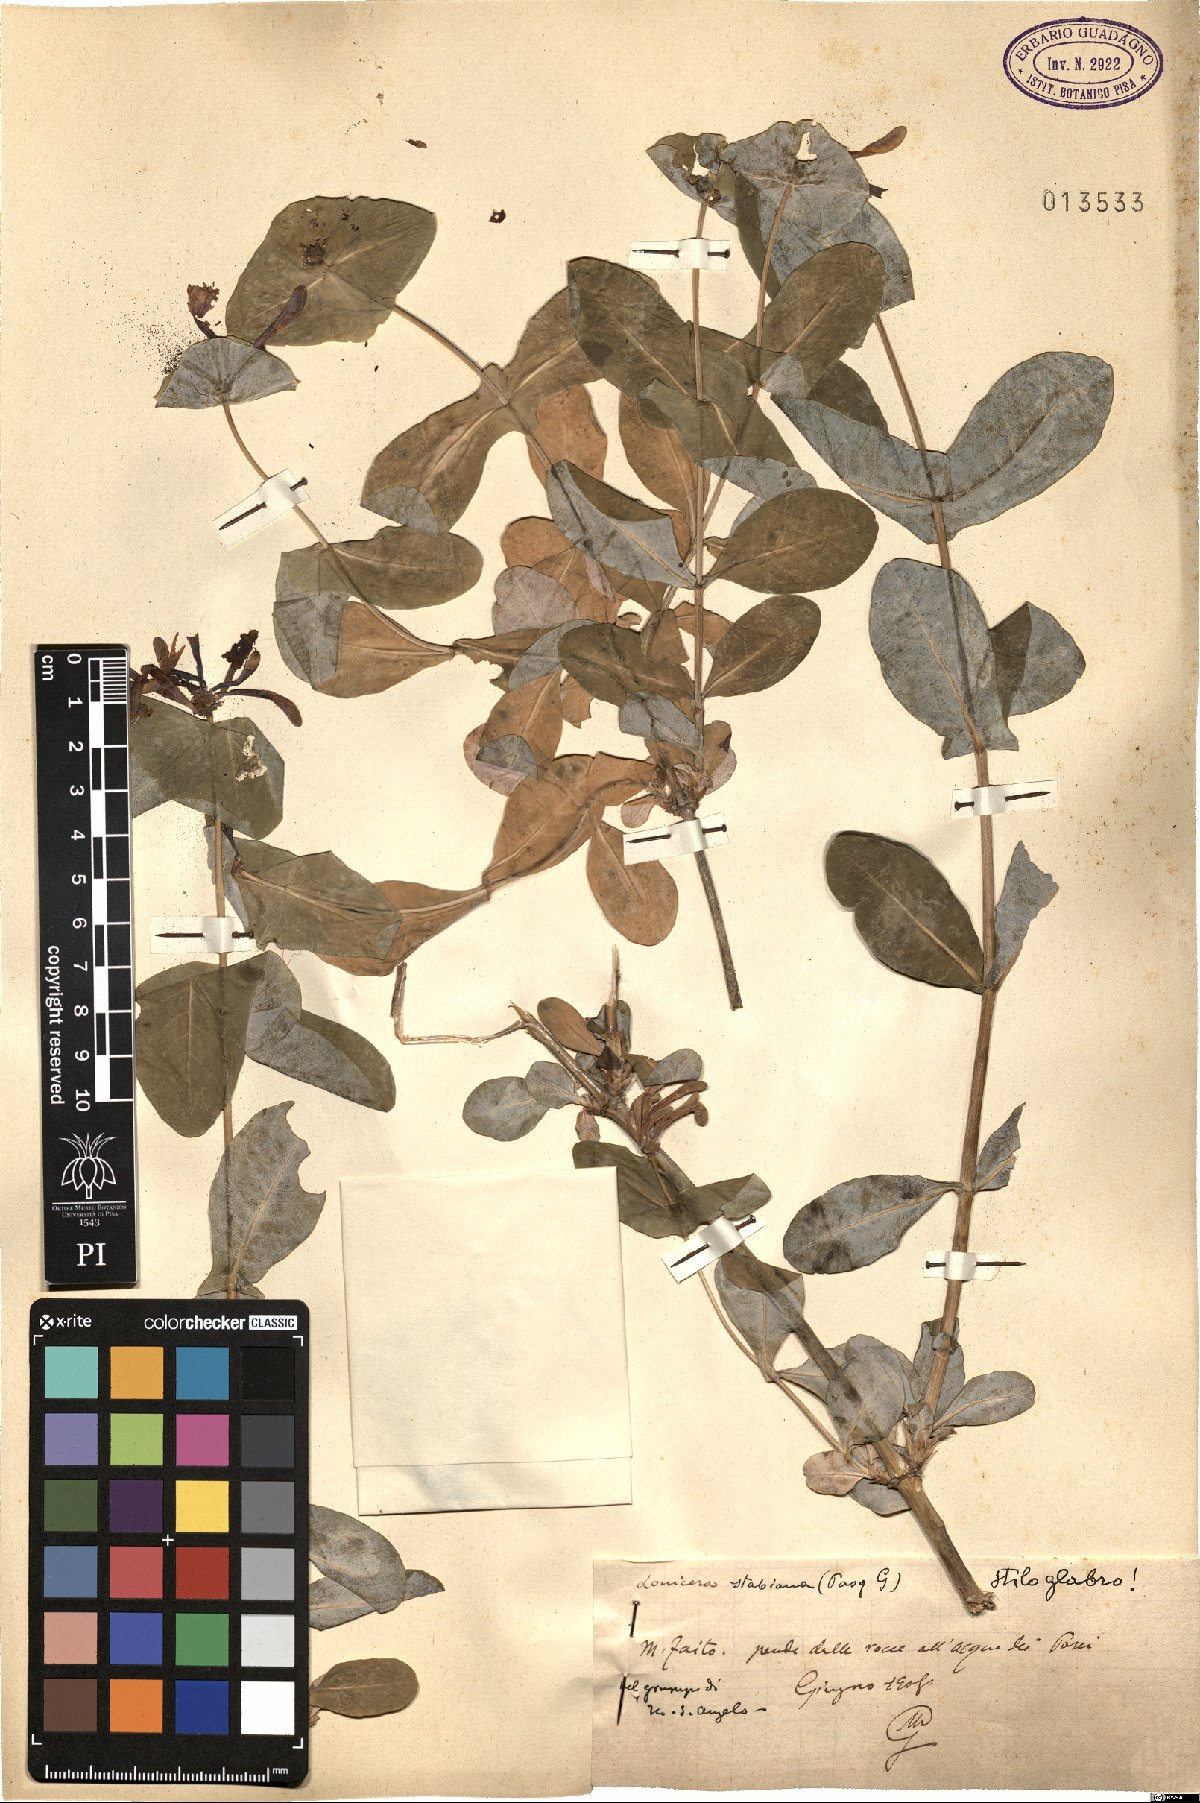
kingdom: Plantae
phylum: Tracheophyta
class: Magnoliopsida
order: Dipsacales
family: Caprifoliaceae
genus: Lonicera
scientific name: Lonicera stabiana
